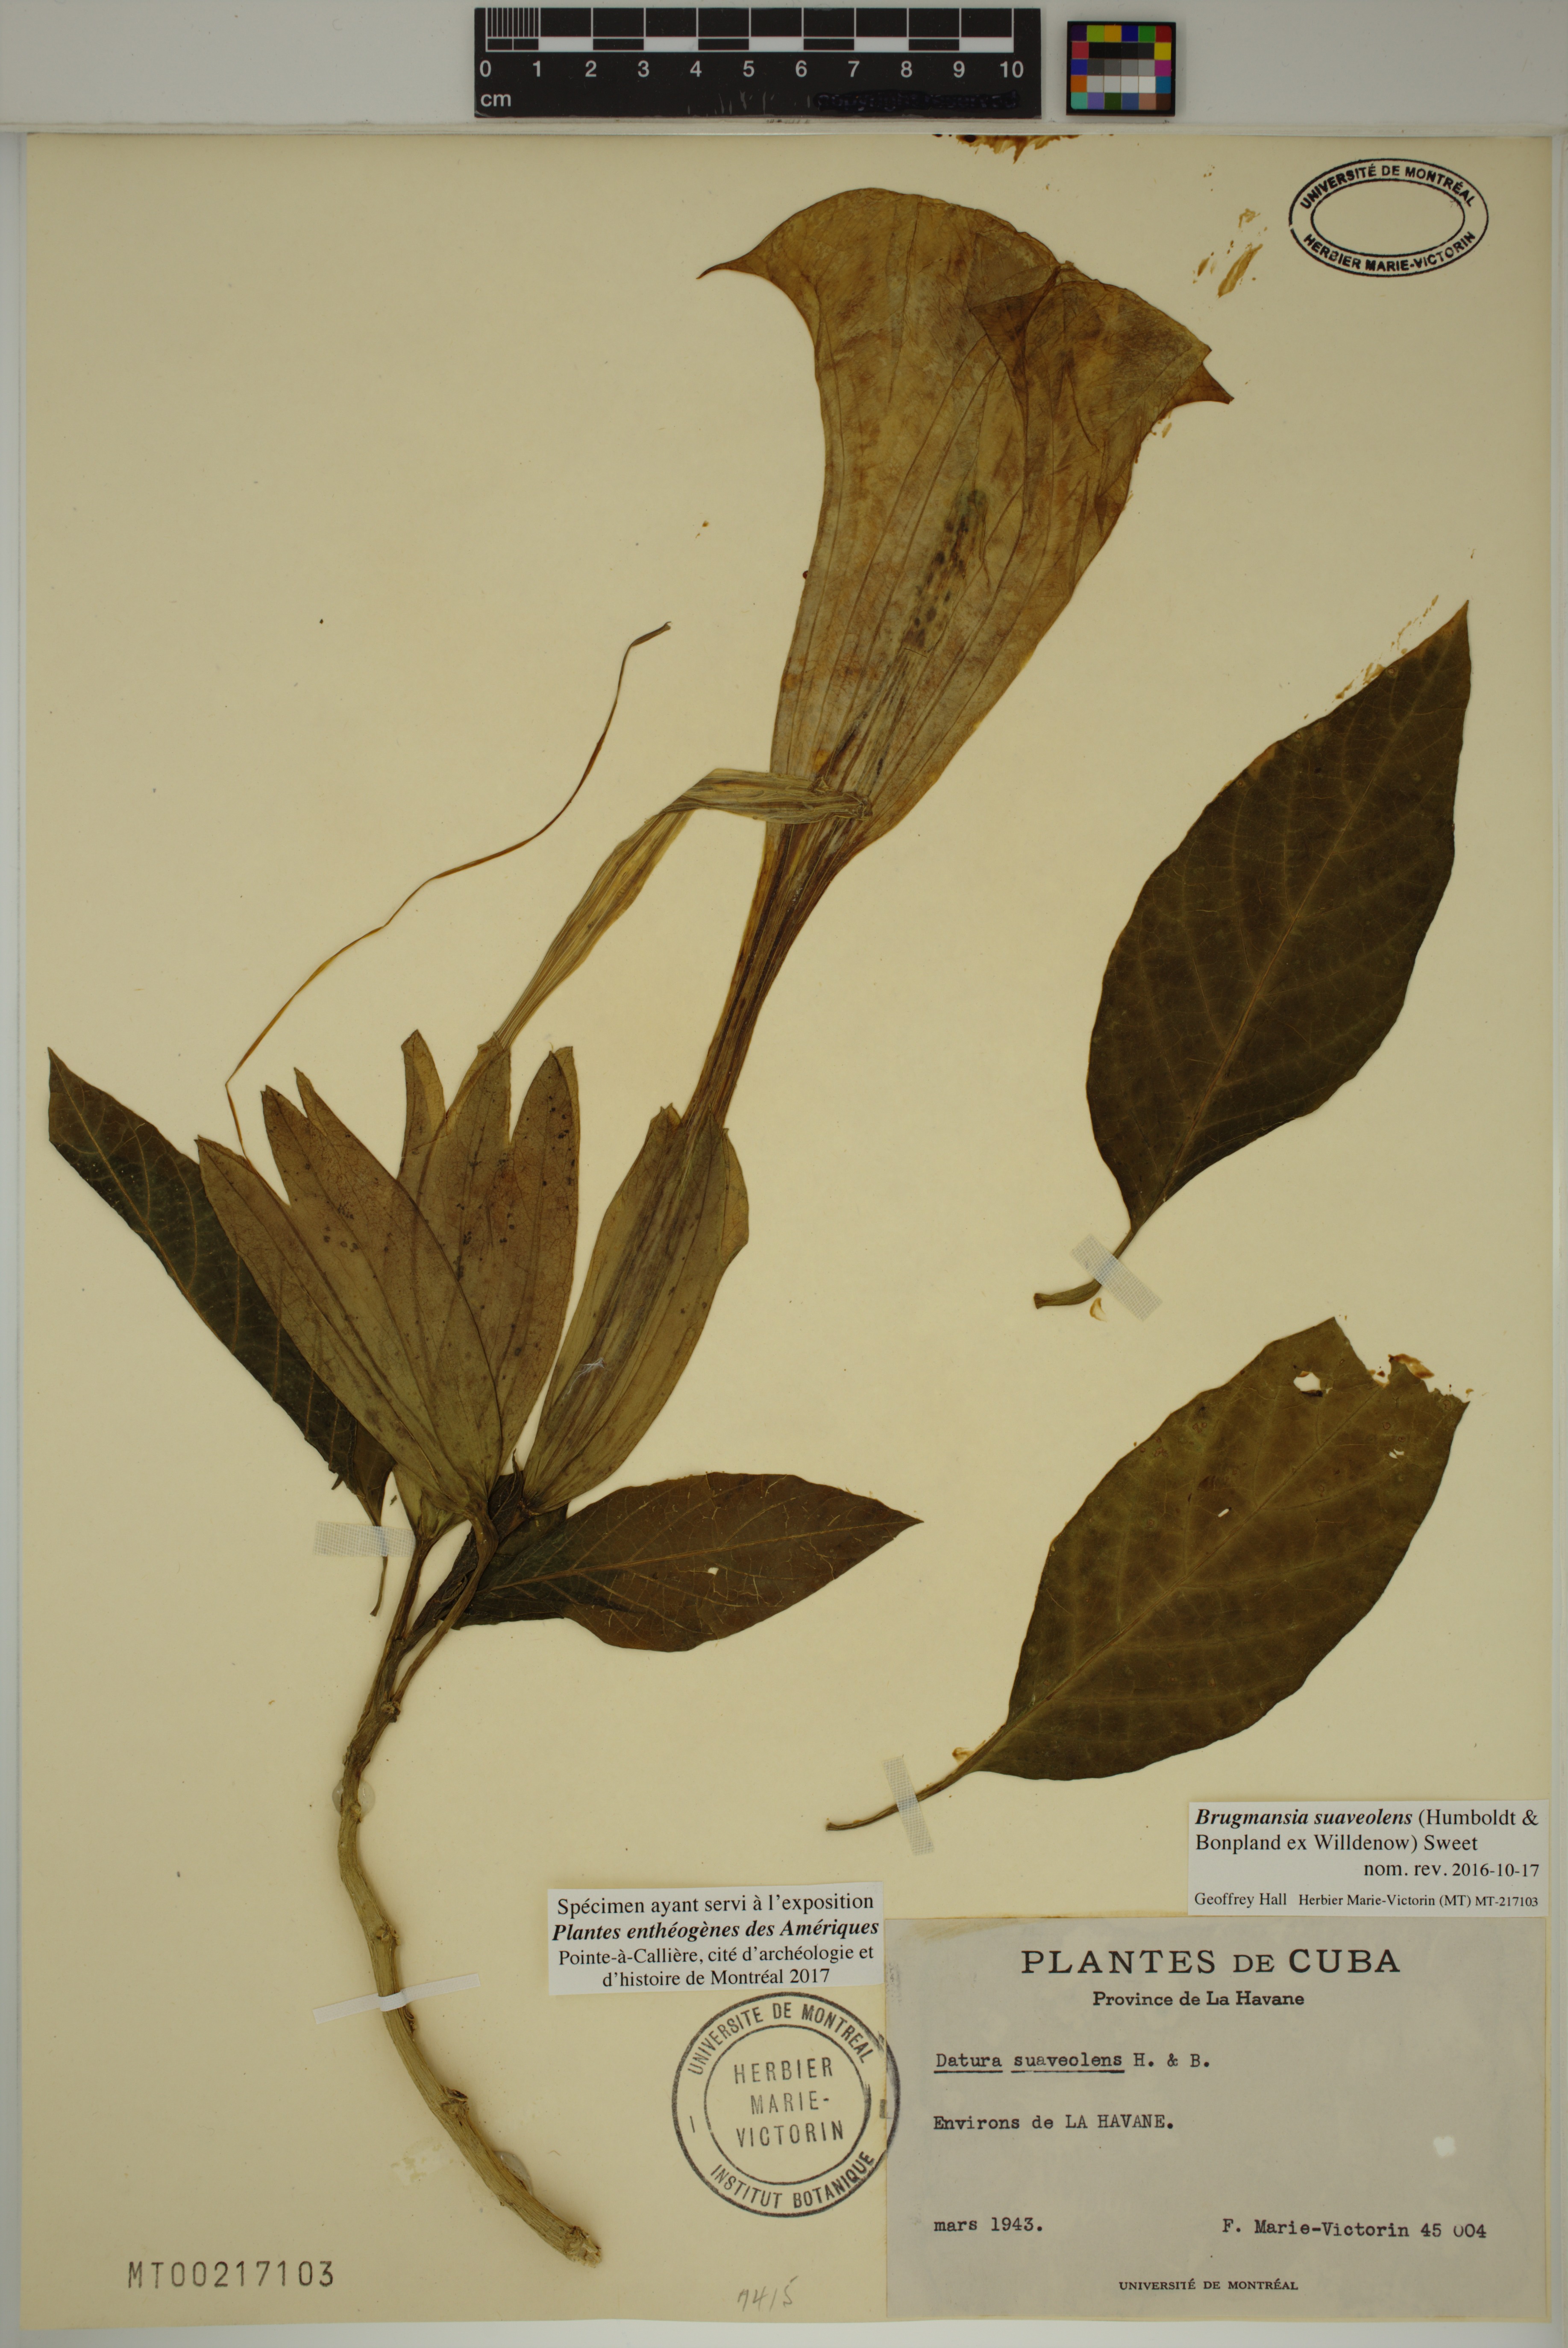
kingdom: Plantae
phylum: Tracheophyta
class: Magnoliopsida
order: Solanales
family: Solanaceae
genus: Brugmansia
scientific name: Brugmansia suaveolens
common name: Angel's tears
